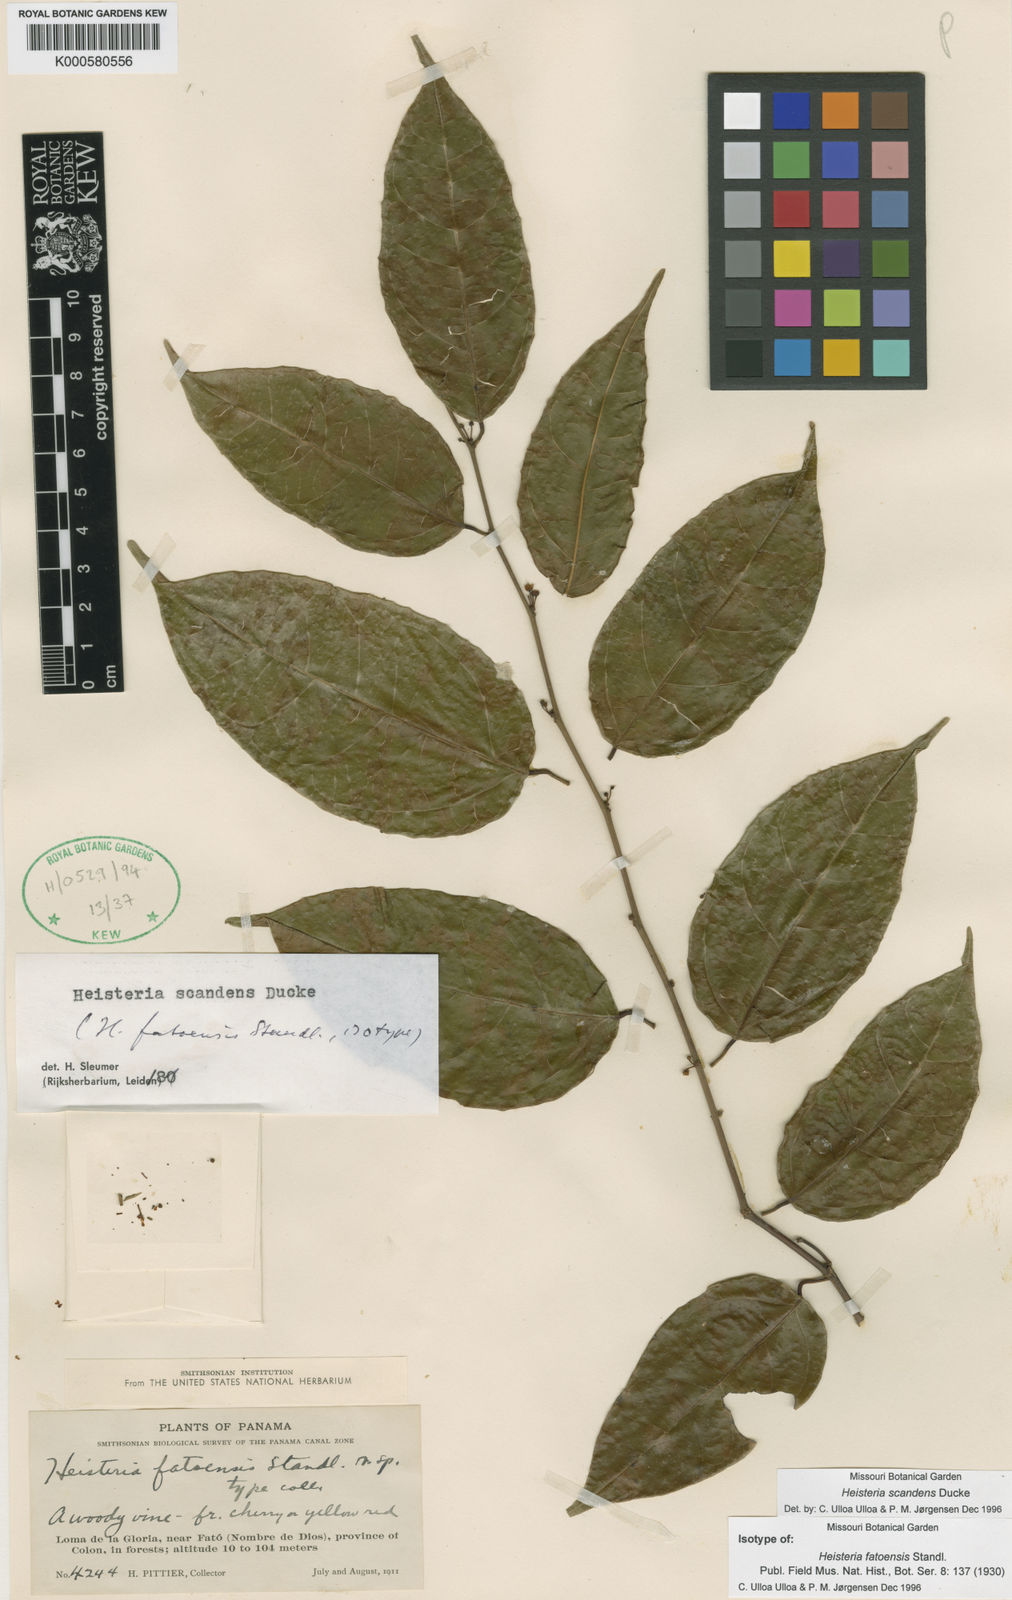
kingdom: Plantae
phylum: Tracheophyta
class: Magnoliopsida
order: Santalales
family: Erythropalaceae
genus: Heisteria
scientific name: Heisteria scandens
